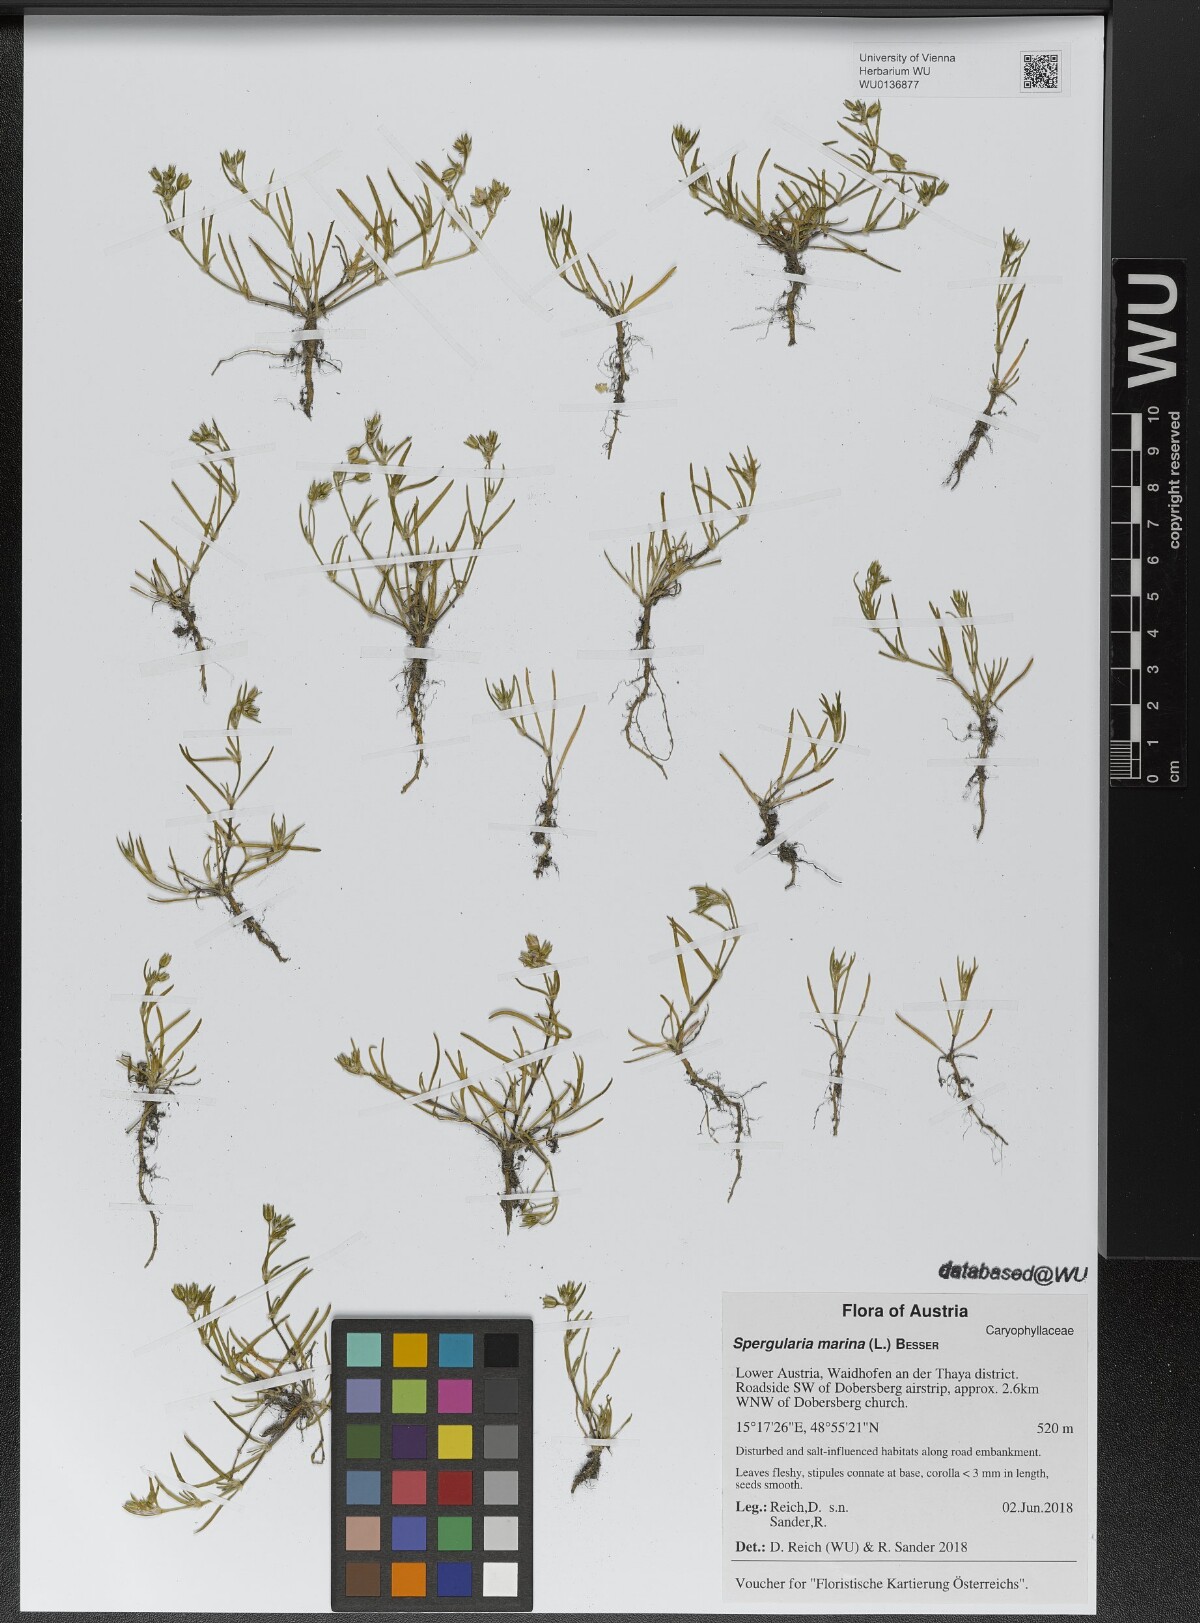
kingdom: Plantae
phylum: Tracheophyta
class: Magnoliopsida
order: Caryophyllales
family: Caryophyllaceae
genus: Spergularia
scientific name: Spergularia marina
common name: Lesser sea-spurrey
